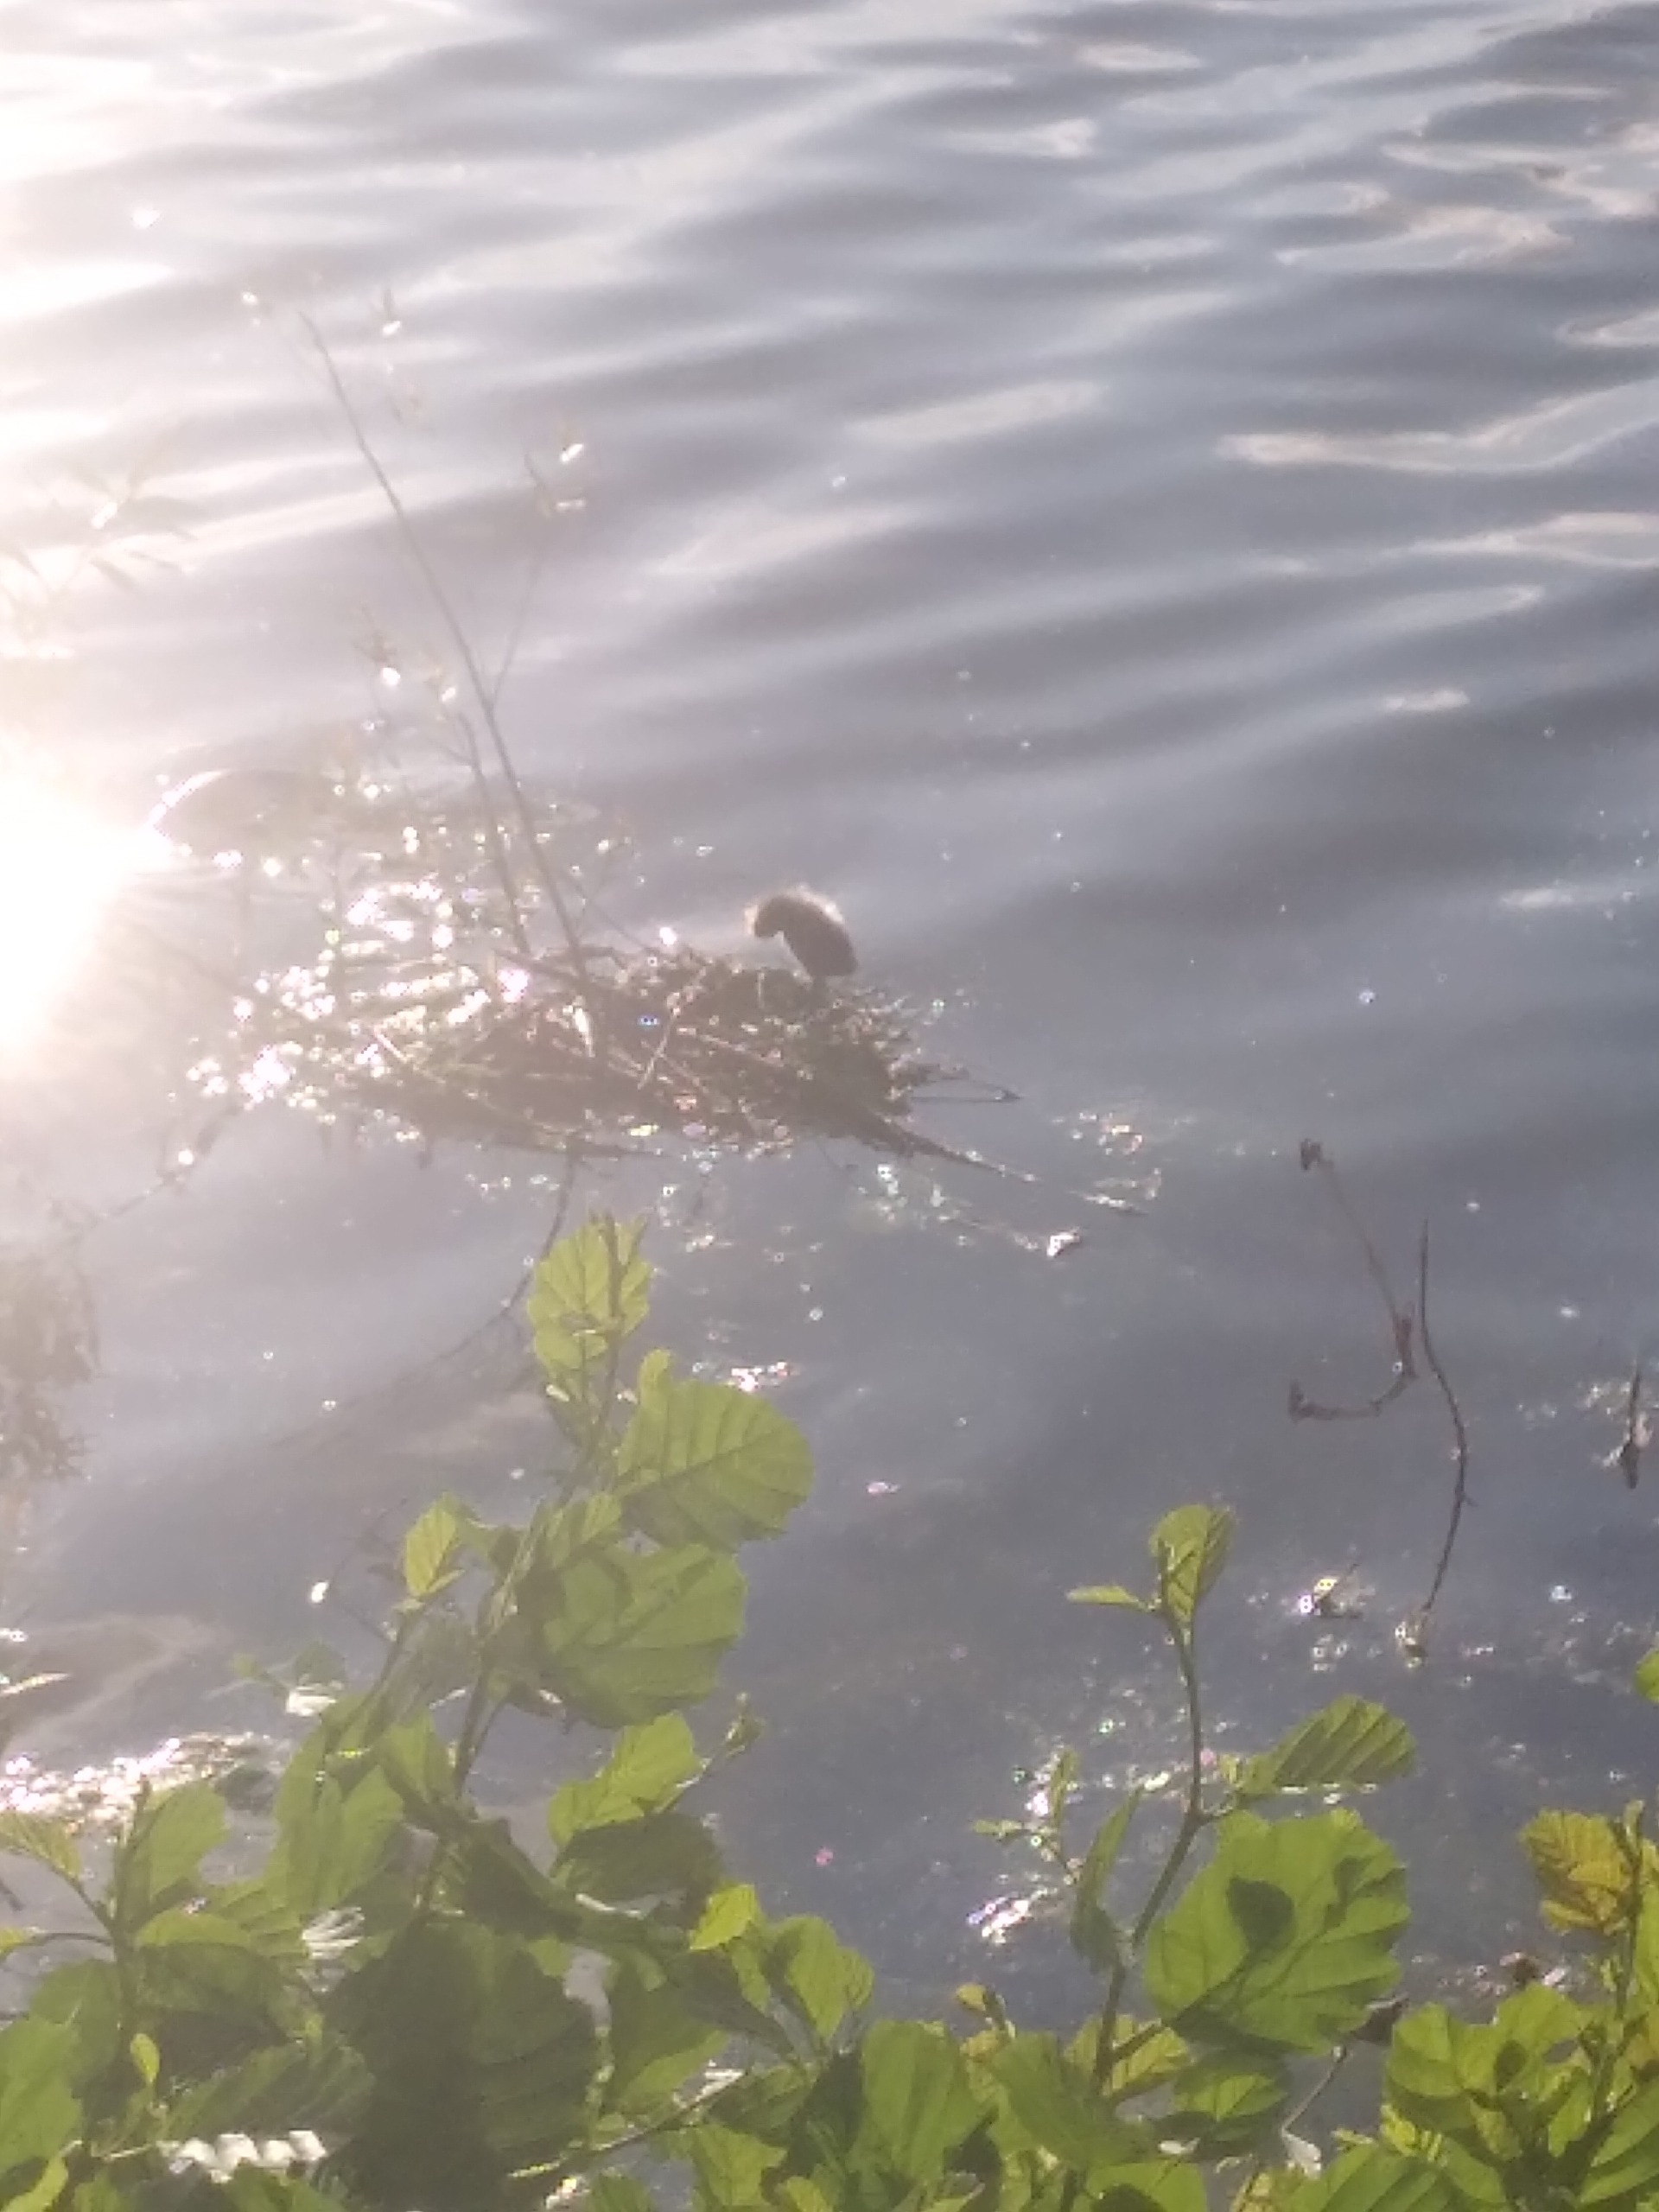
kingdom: Animalia
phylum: Chordata
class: Aves
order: Gruiformes
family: Rallidae
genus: Fulica
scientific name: Fulica atra
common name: Blishøne
